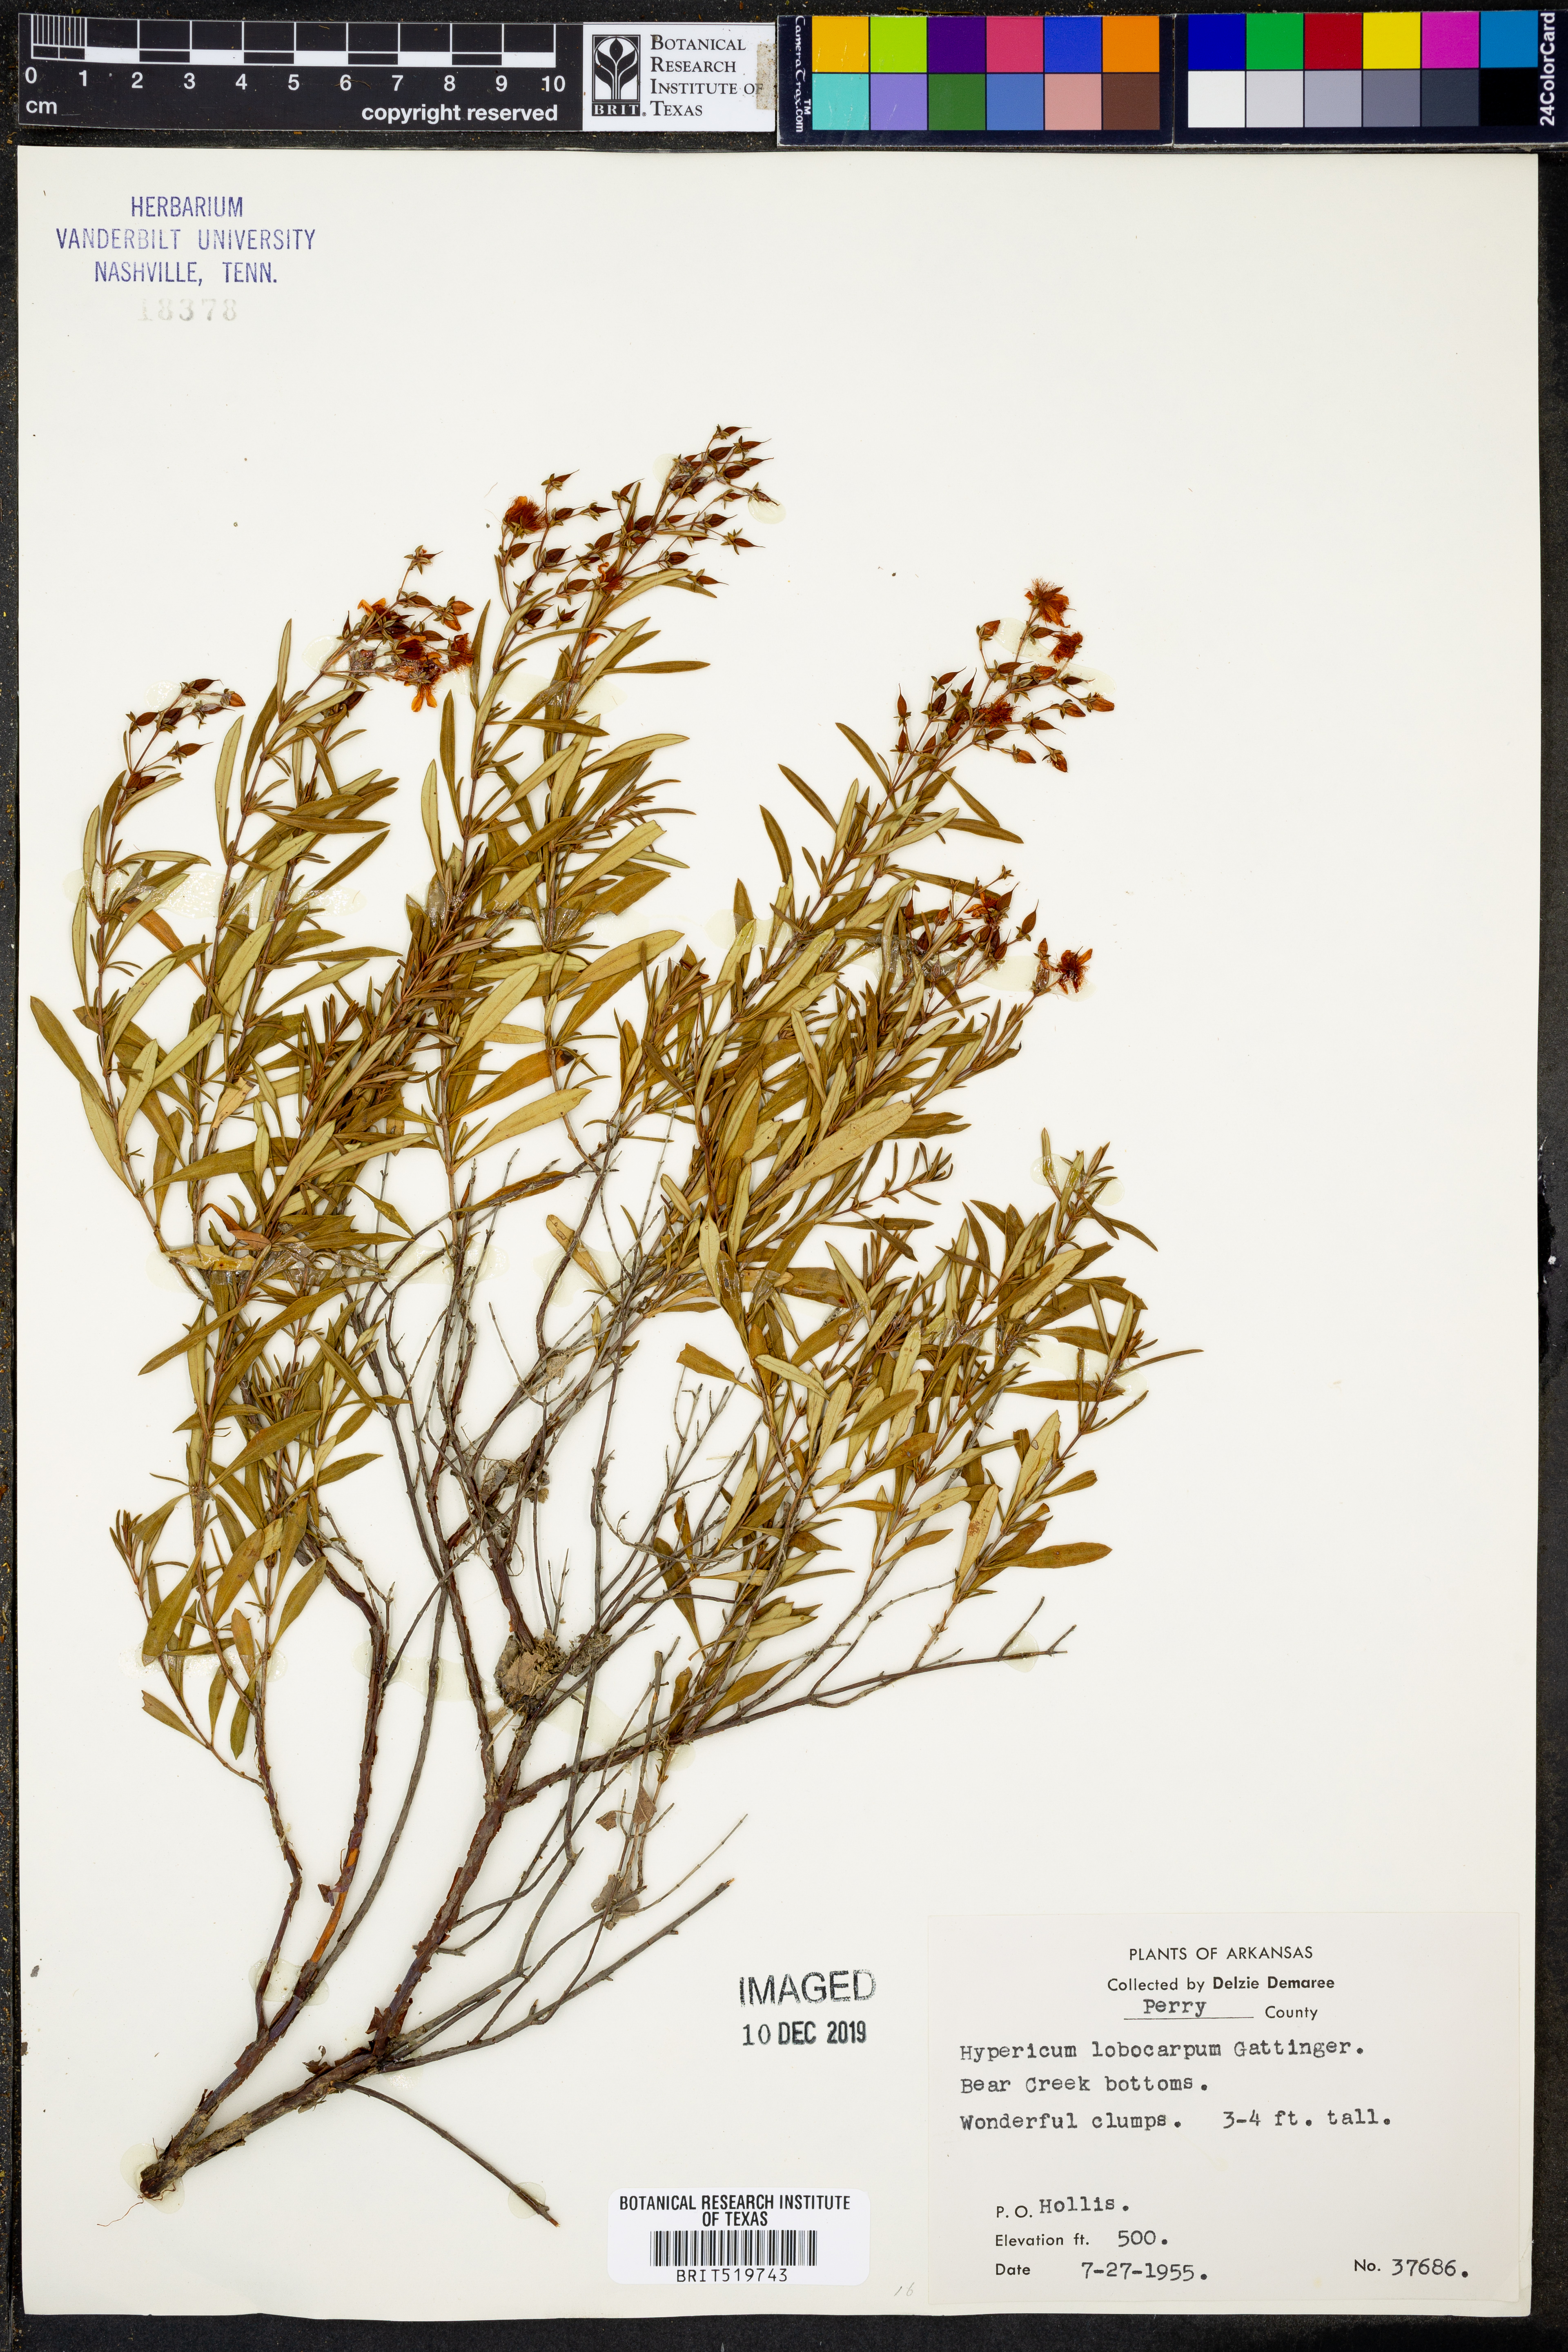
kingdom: Plantae
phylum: Tracheophyta
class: Magnoliopsida
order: Malpighiales
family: Hypericaceae
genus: Hypericum
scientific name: Hypericum lobocarpum
